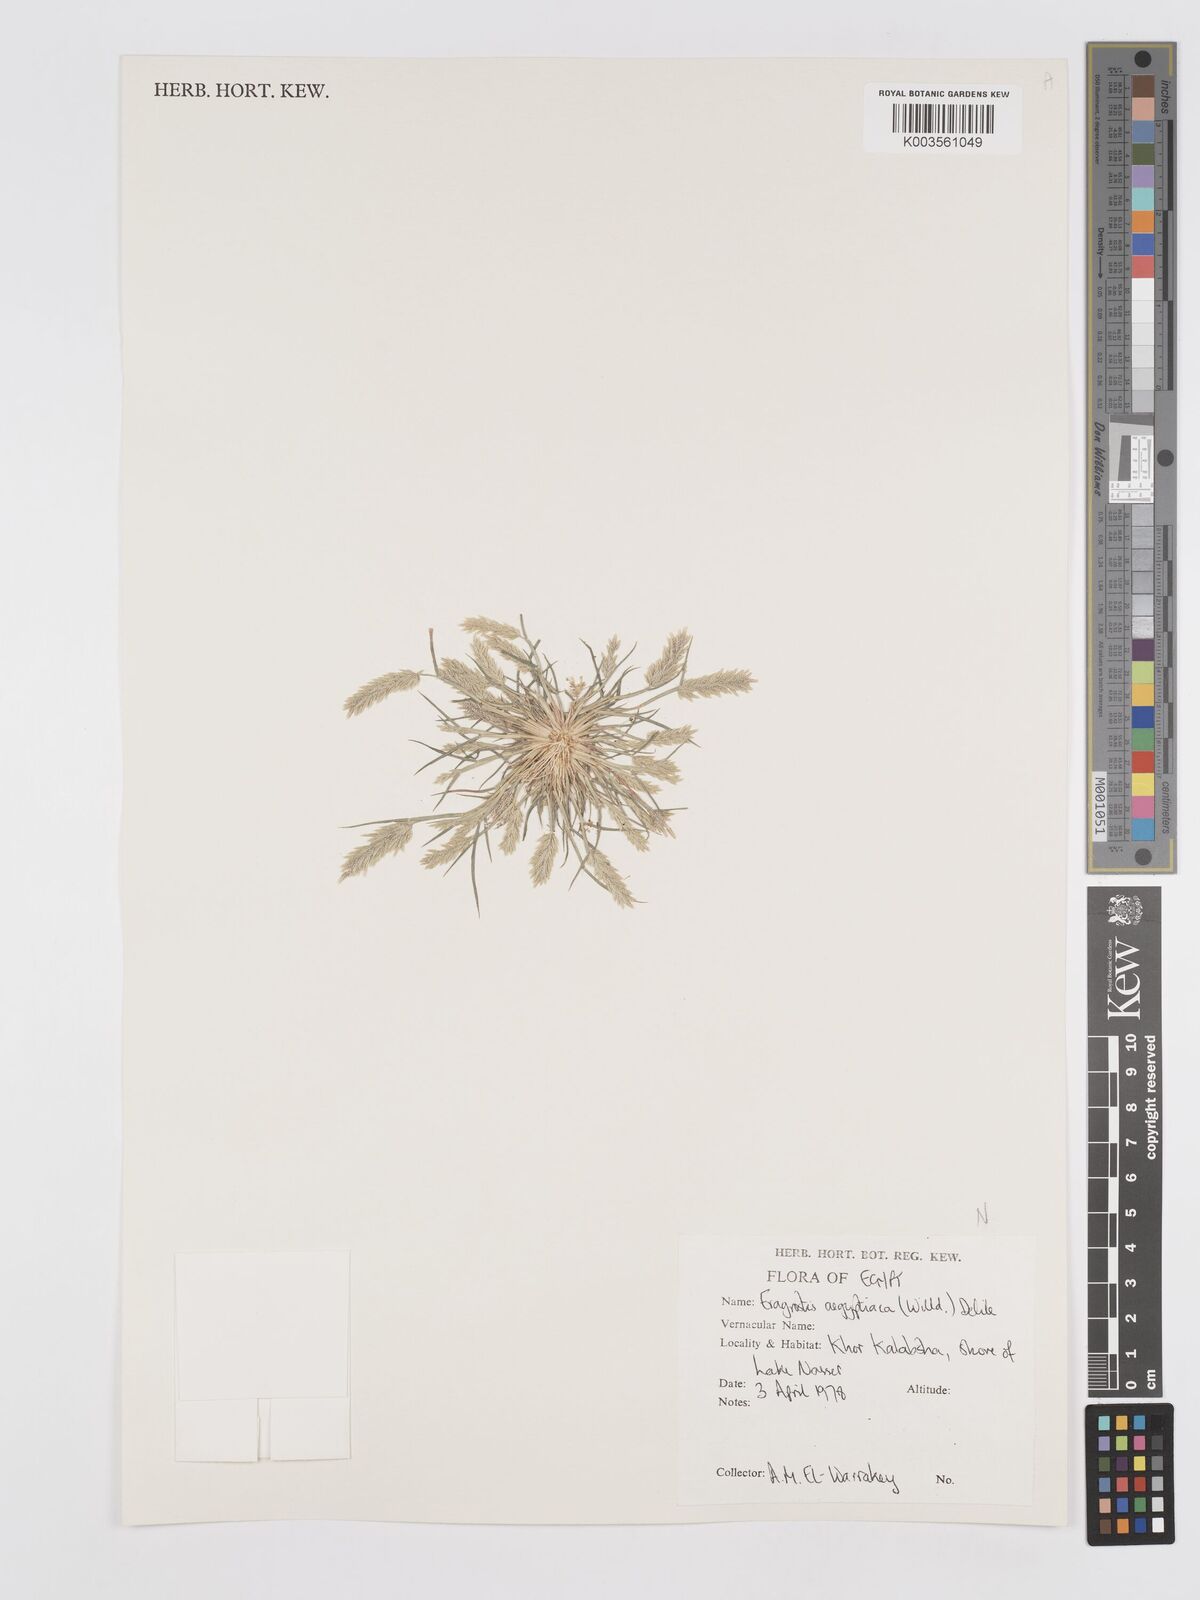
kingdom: Plantae
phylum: Tracheophyta
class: Liliopsida
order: Poales
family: Poaceae
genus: Eragrostis
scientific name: Eragrostis aegyptiaca
